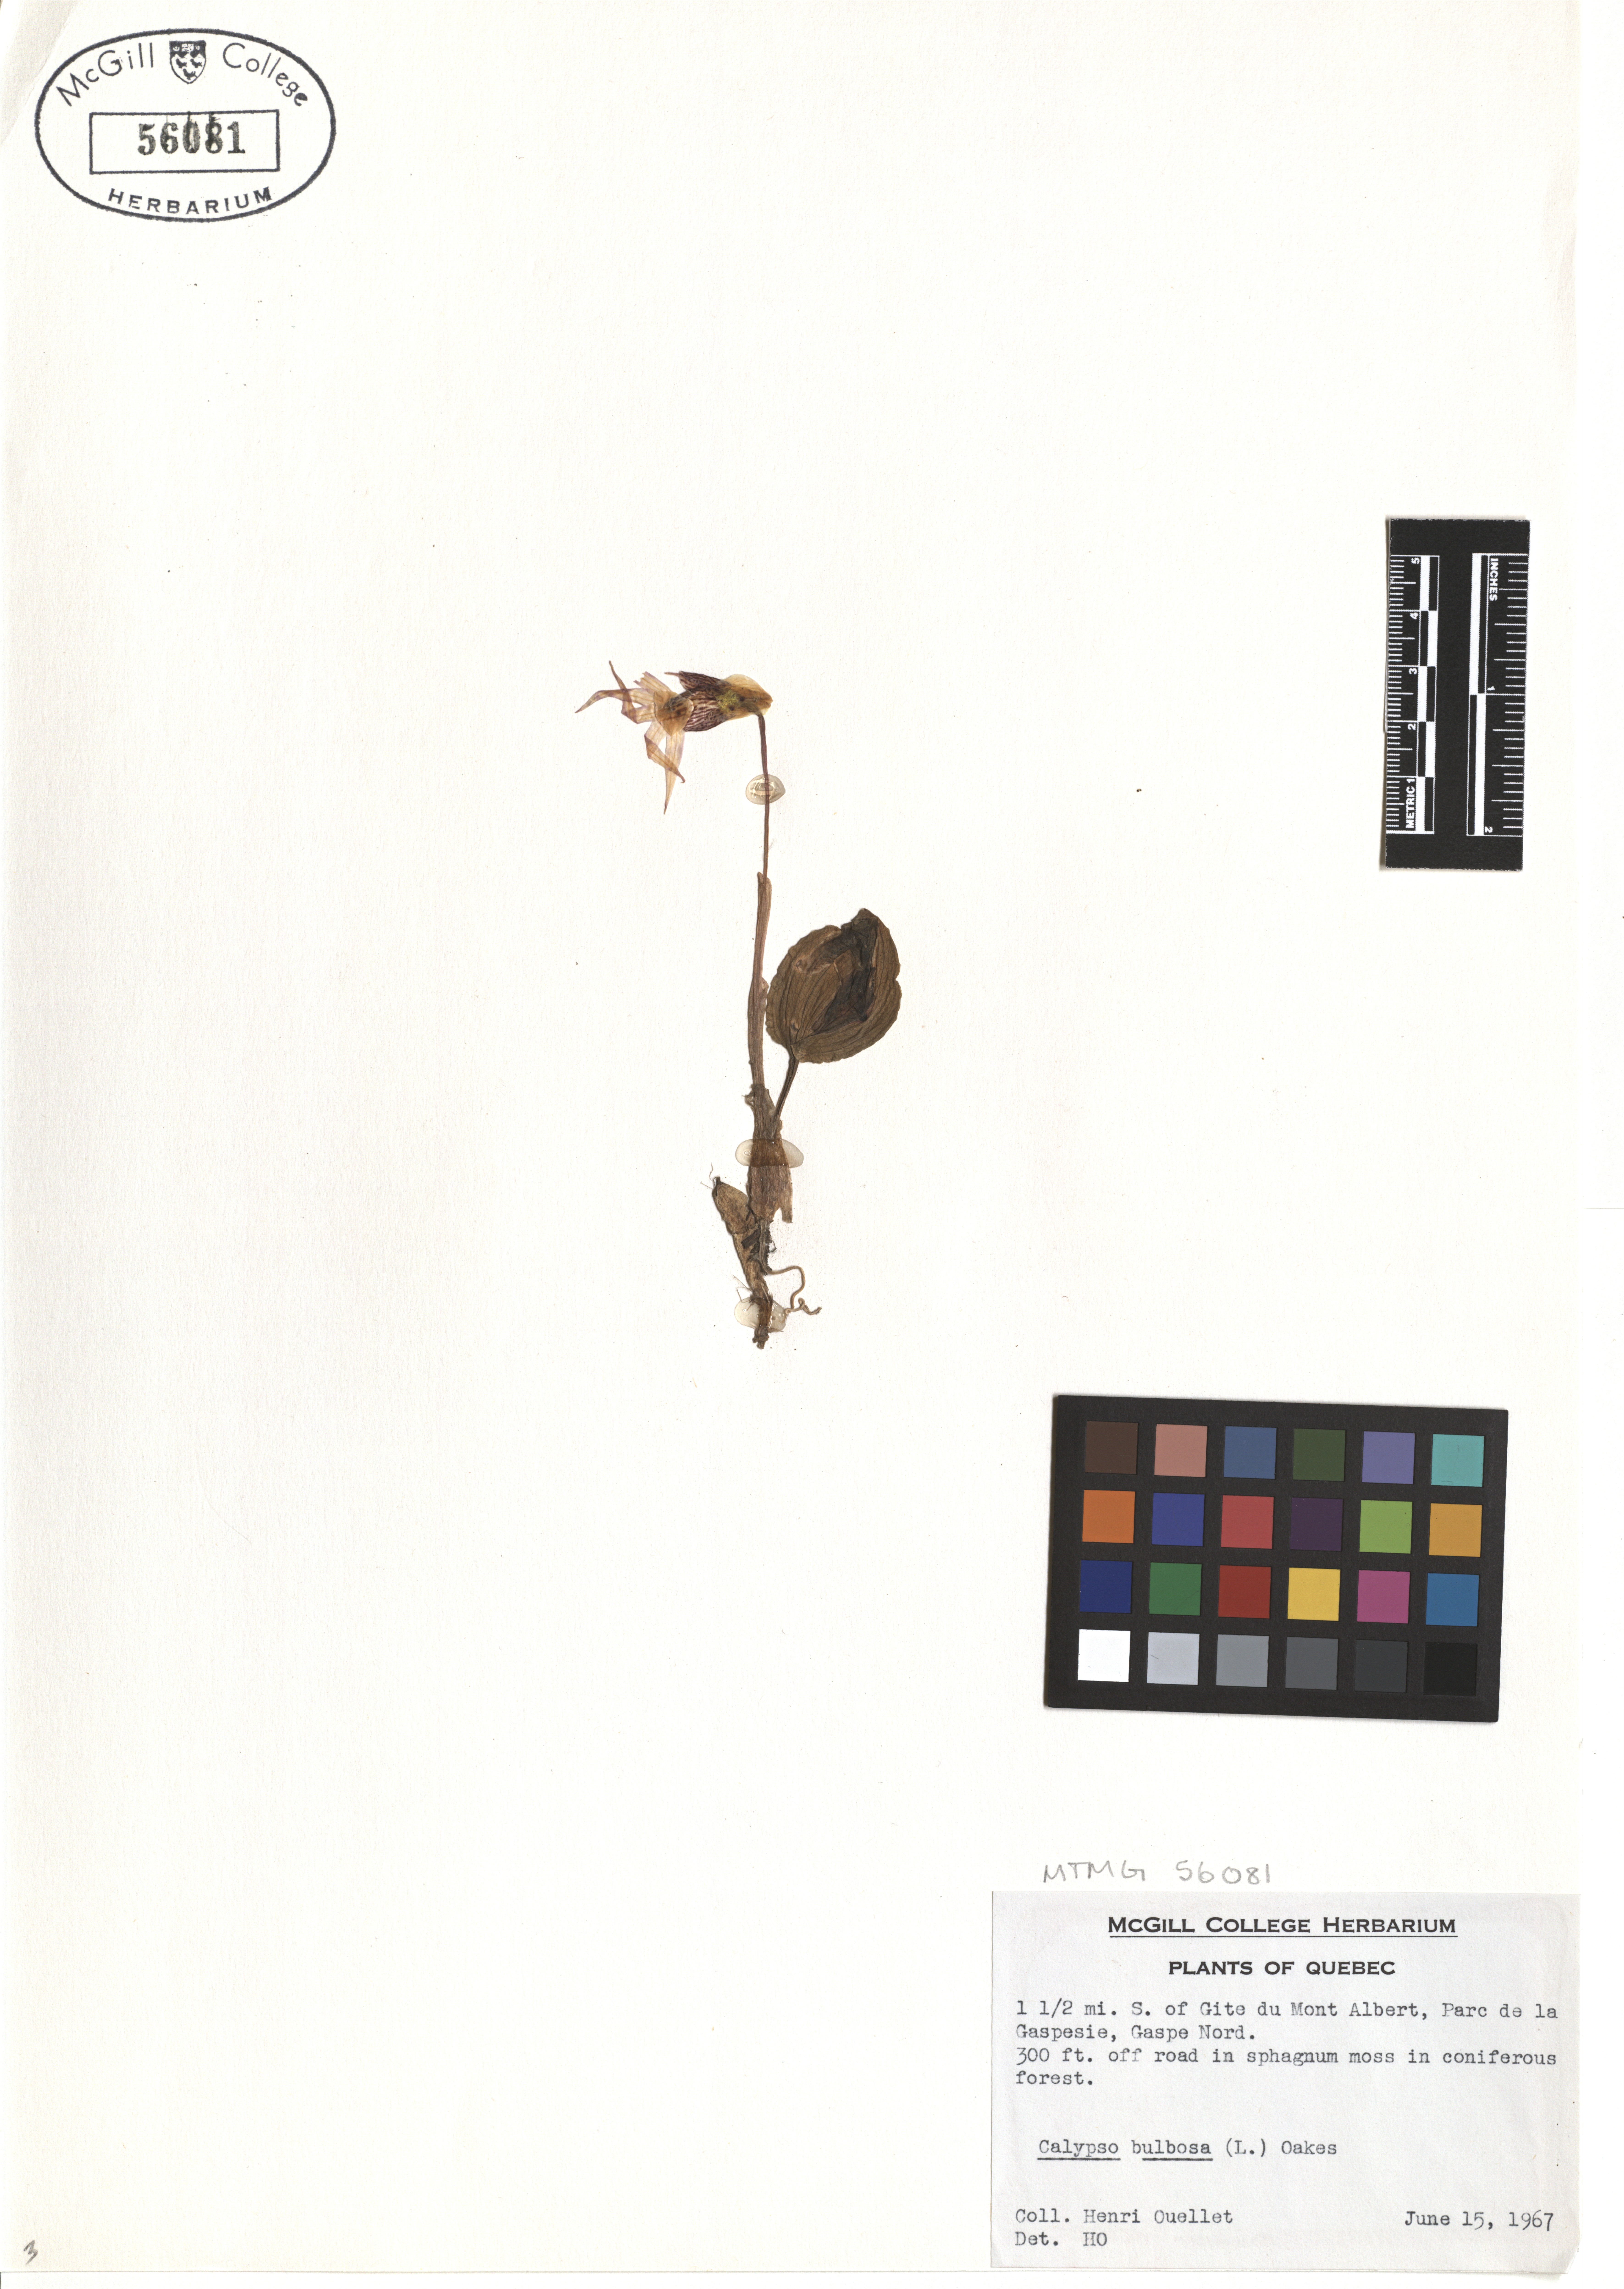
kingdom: Plantae
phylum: Tracheophyta
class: Liliopsida
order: Asparagales
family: Orchidaceae
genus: Calypso
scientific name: Calypso bulbosa
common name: Calypso
